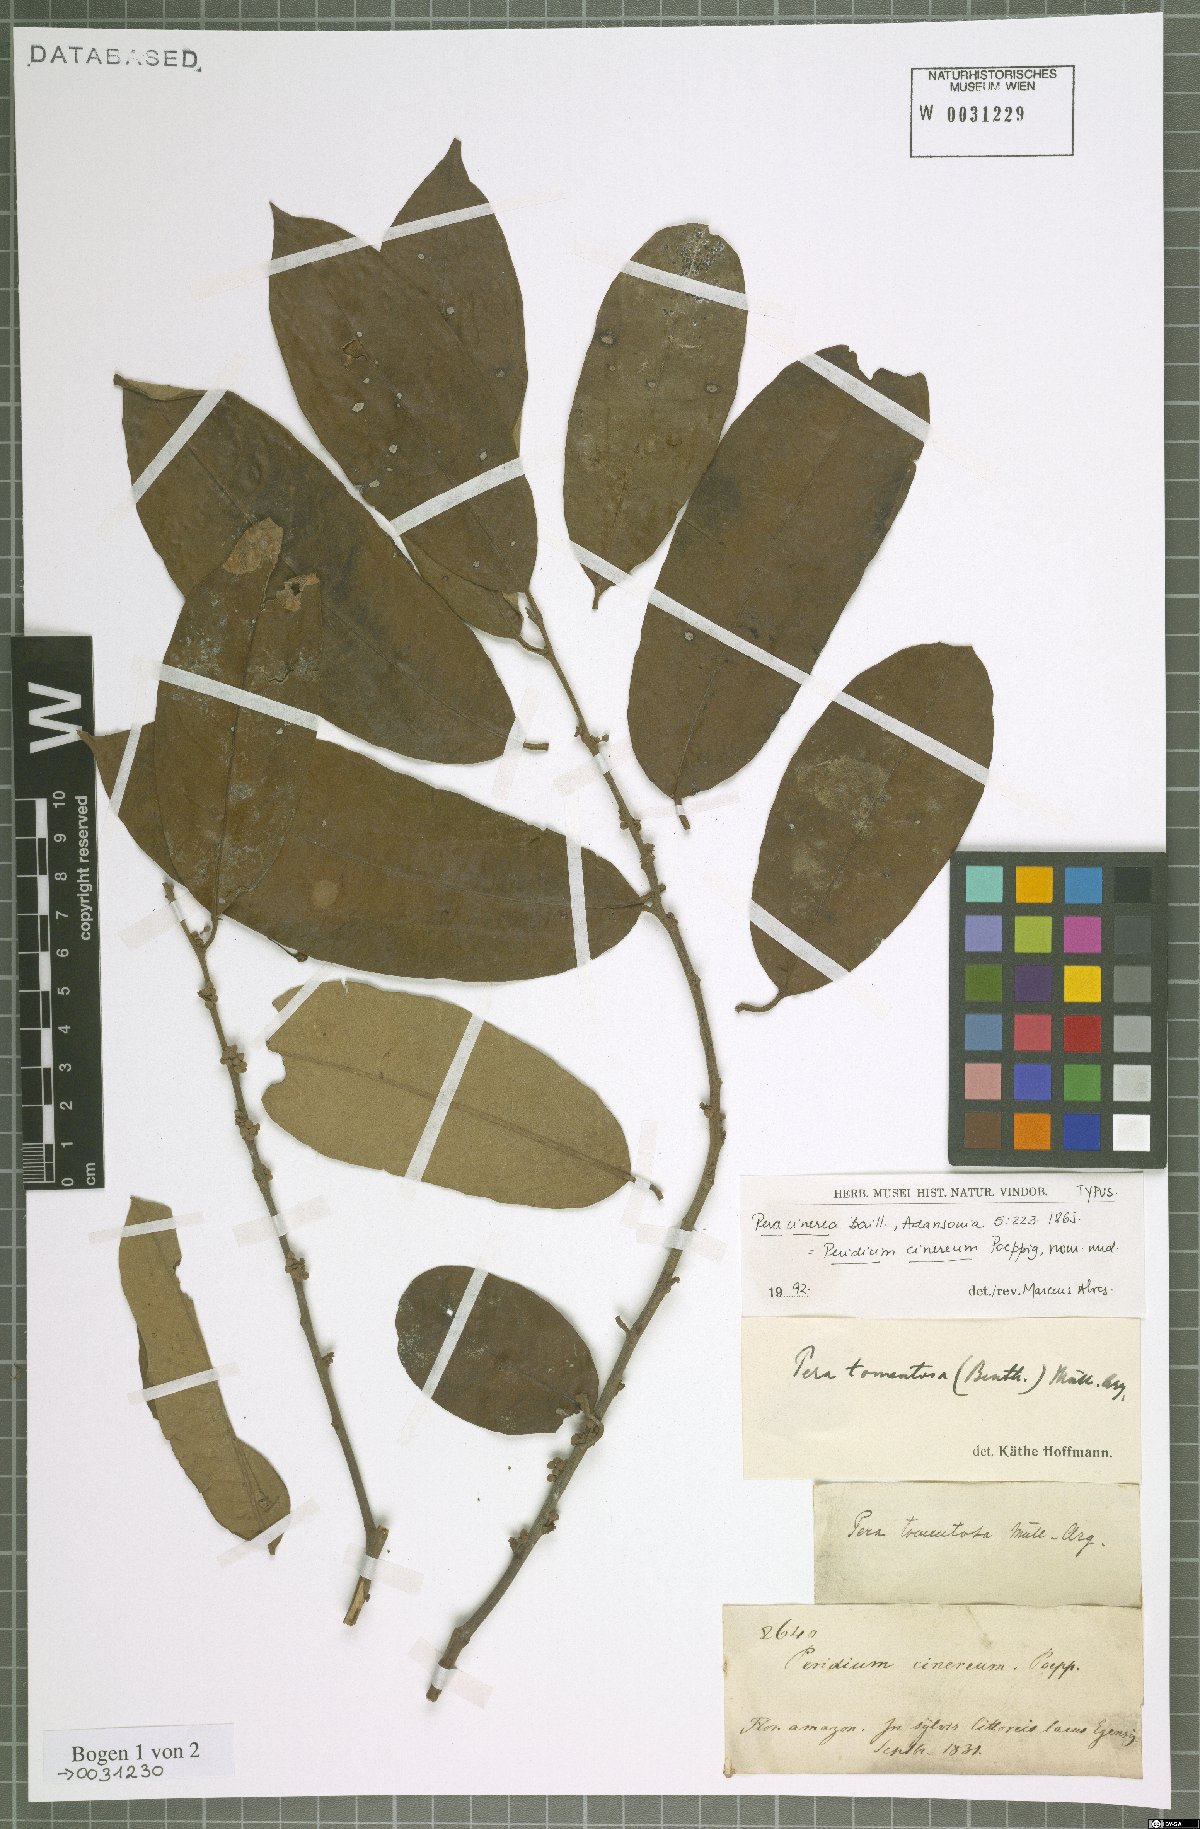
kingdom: Plantae
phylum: Tracheophyta
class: Magnoliopsida
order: Malpighiales
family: Peraceae
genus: Pera
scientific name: Pera tomentosa
